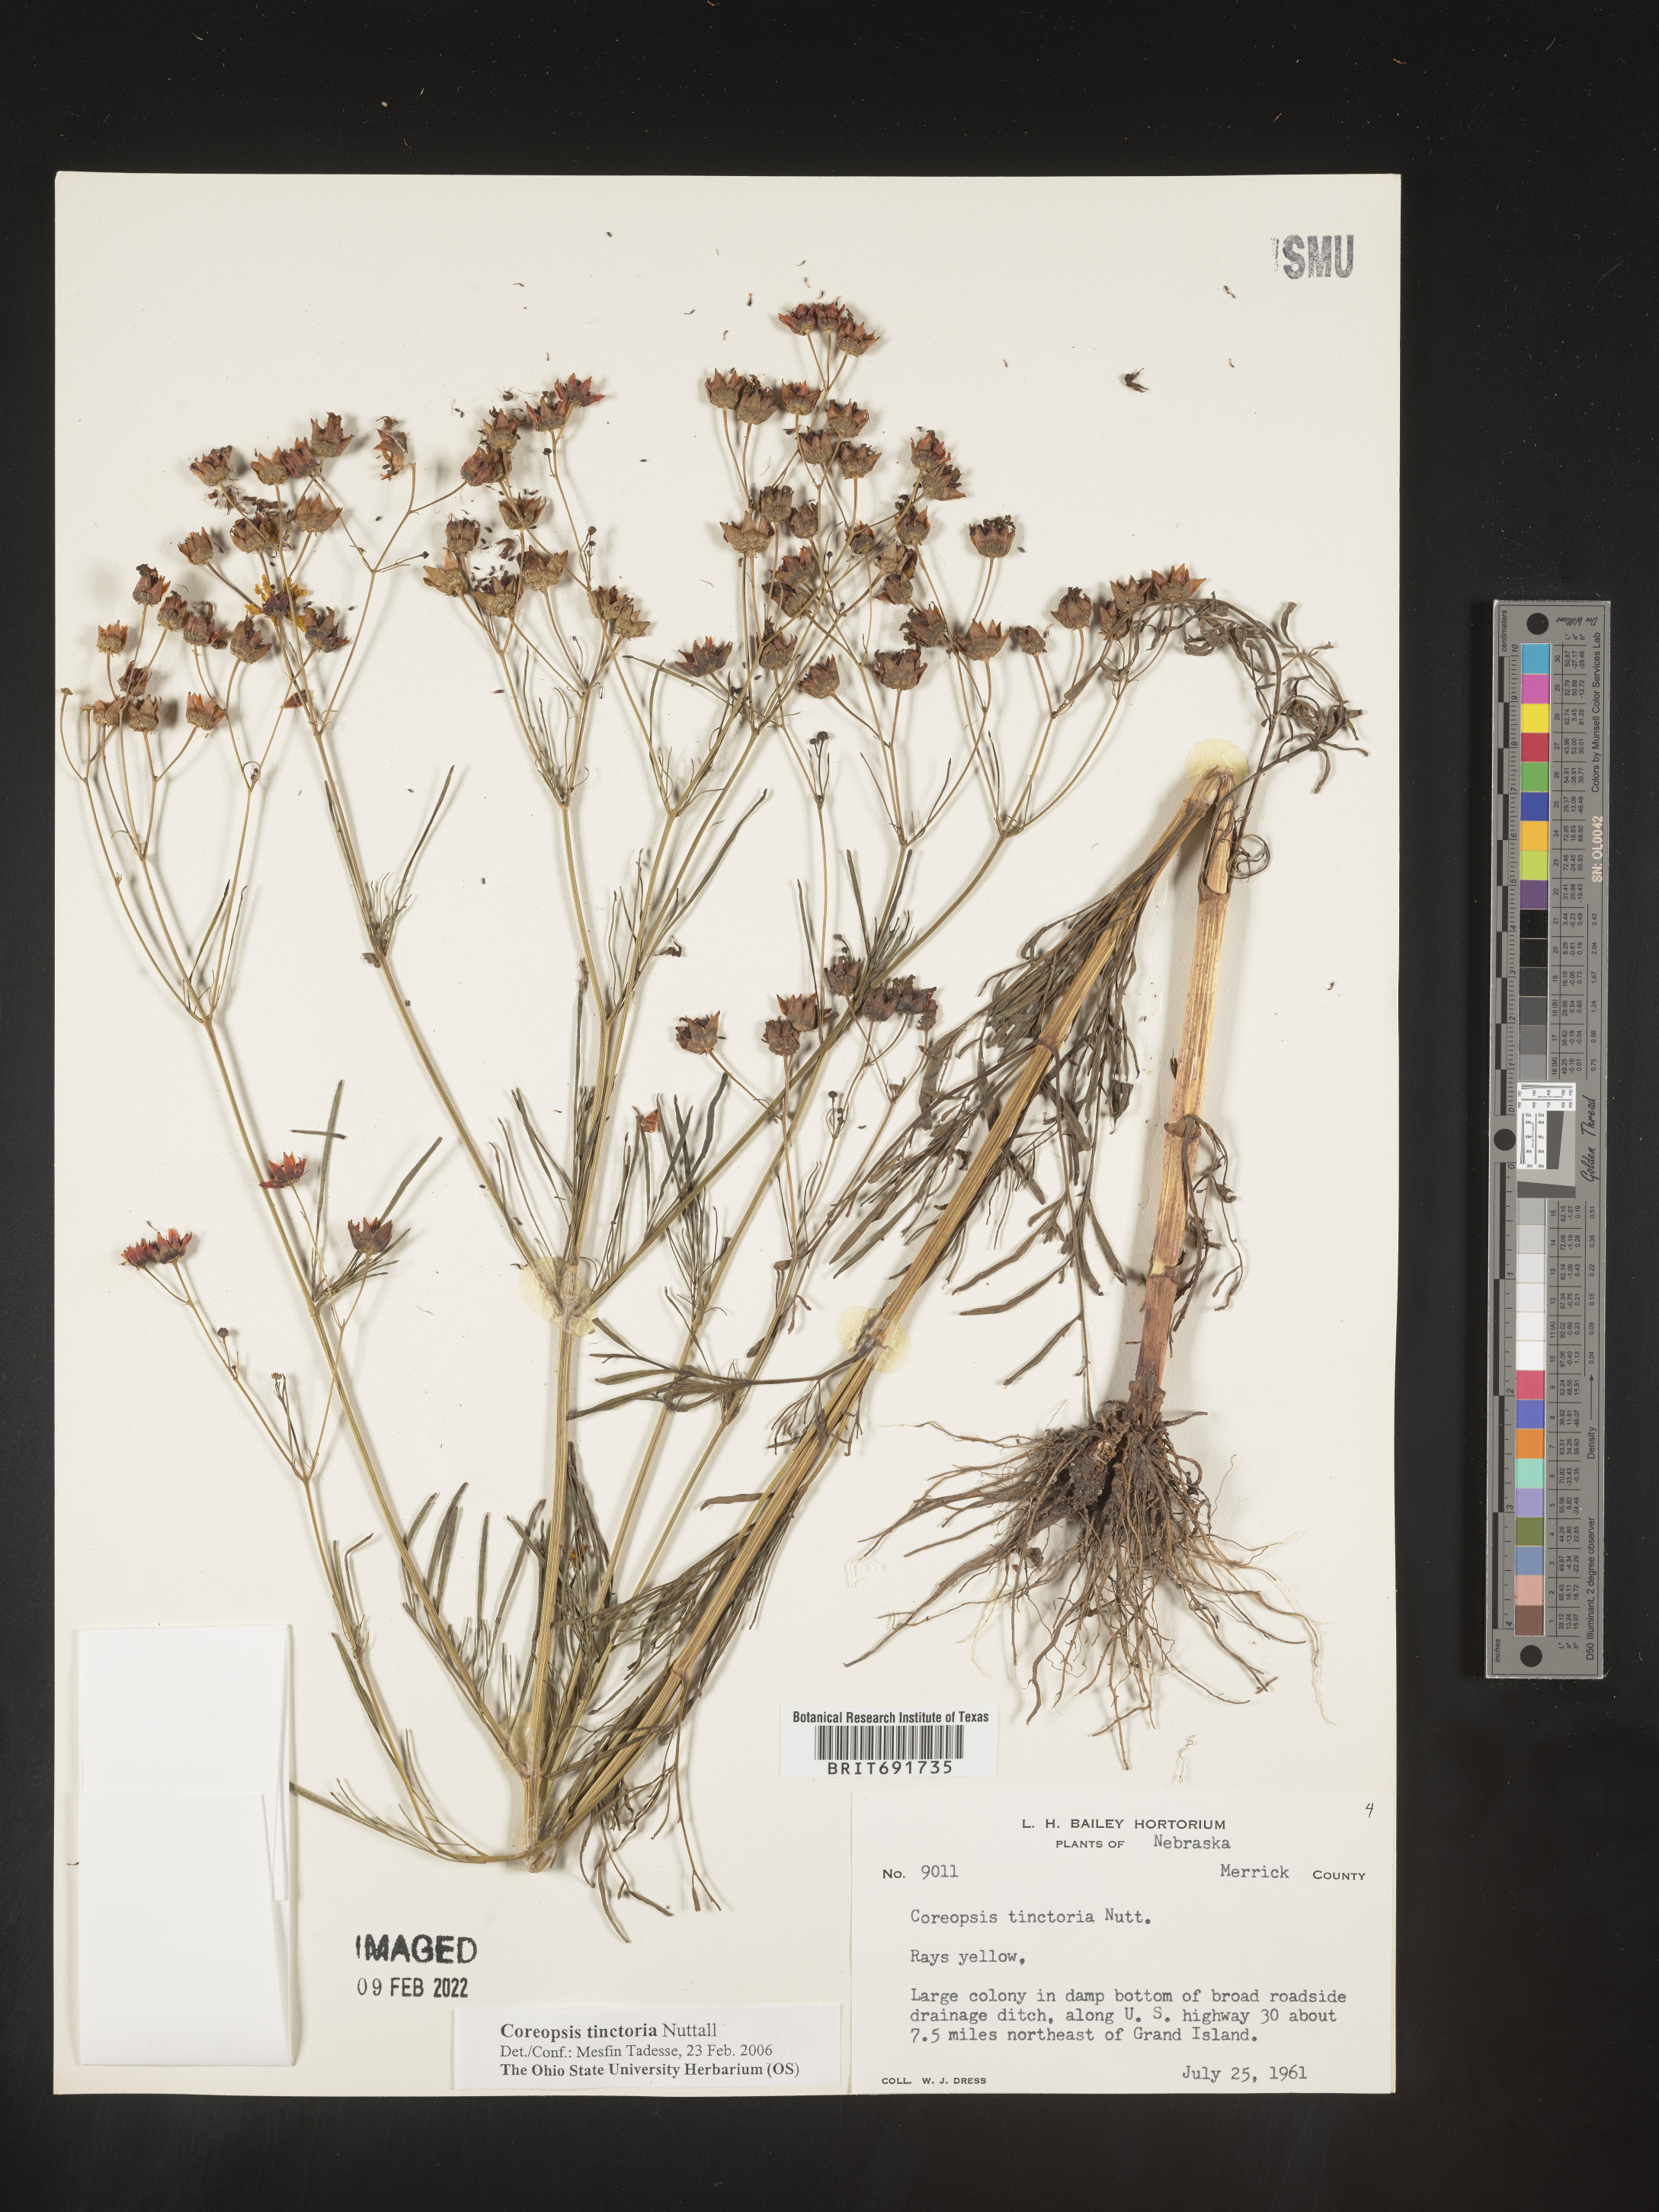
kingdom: Plantae
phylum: Tracheophyta
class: Magnoliopsida
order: Asterales
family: Asteraceae
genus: Coreopsis
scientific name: Coreopsis tinctoria
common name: Garden tickseed
